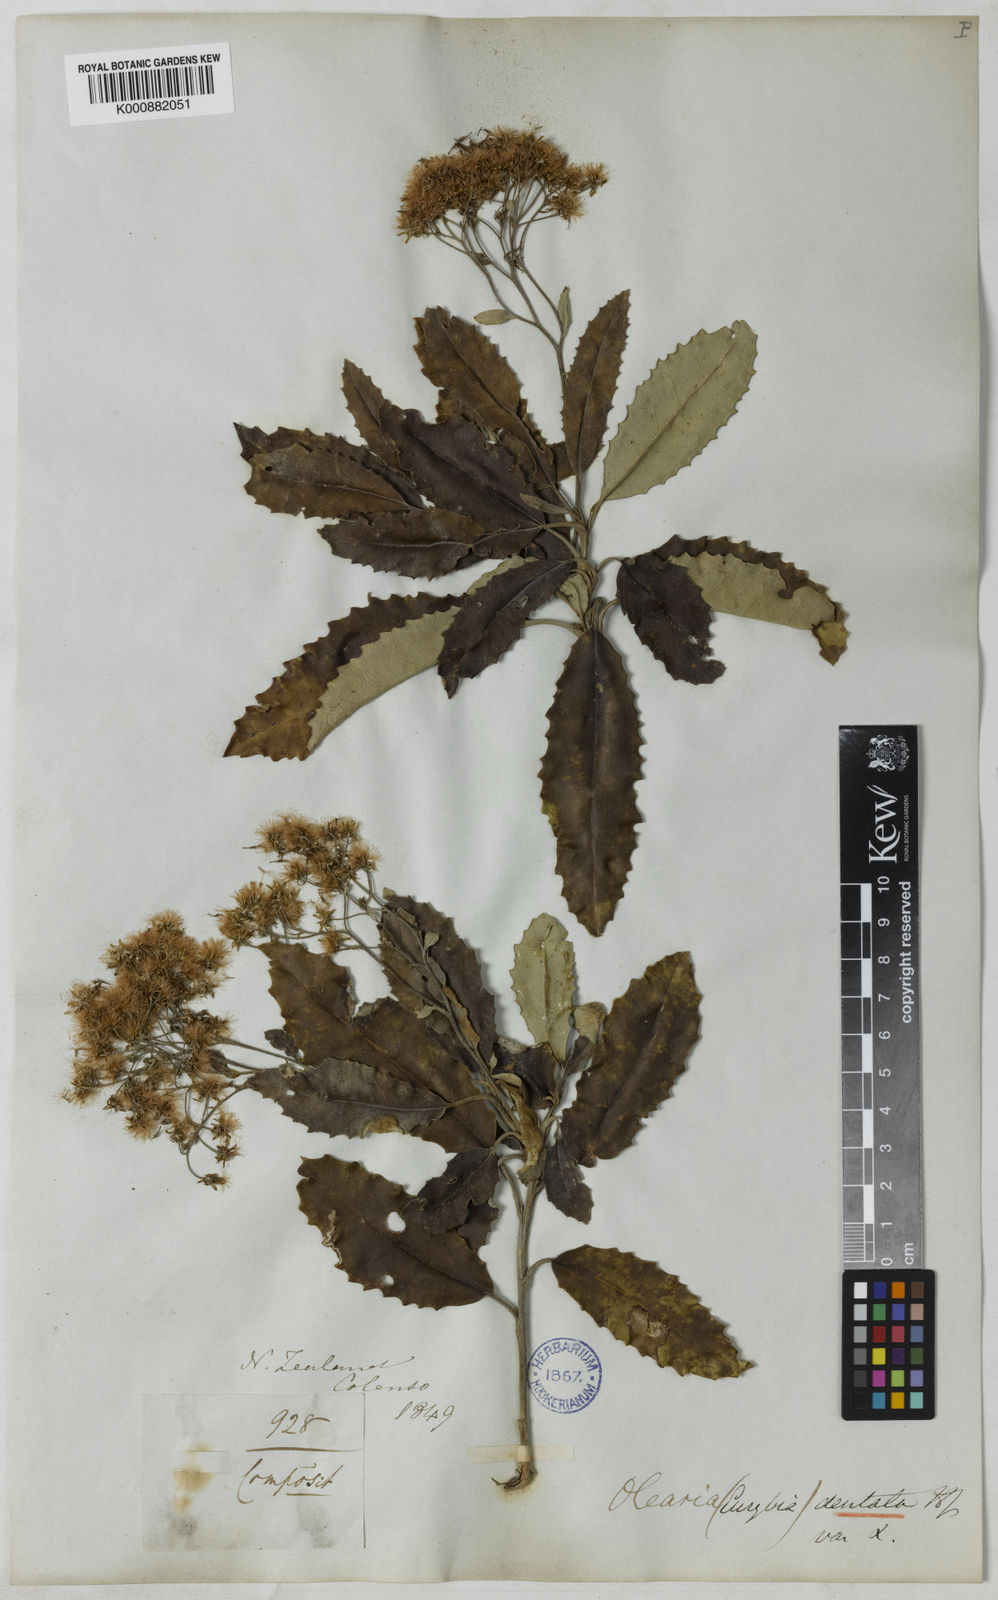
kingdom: Plantae
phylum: Tracheophyta
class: Magnoliopsida
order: Asterales
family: Asteraceae
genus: Olearia
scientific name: Olearia macrodonta
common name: New zealand holly
